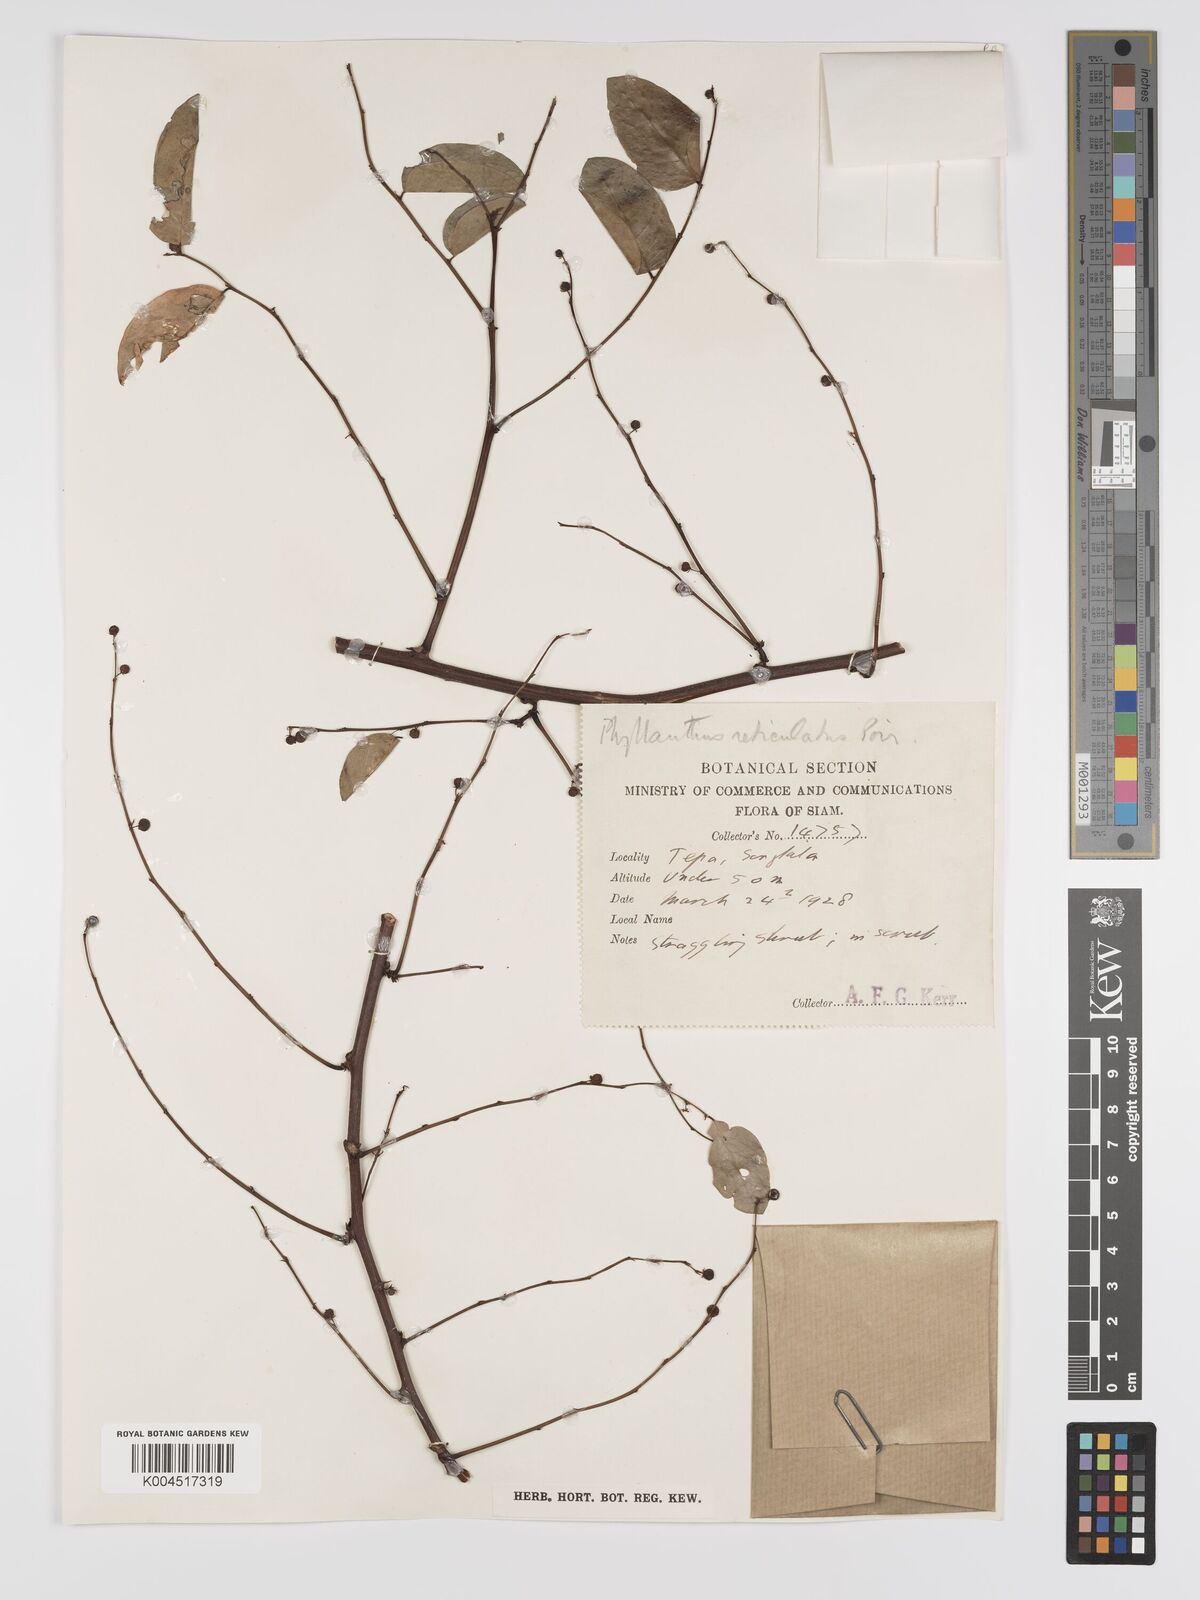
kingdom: Plantae
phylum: Tracheophyta
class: Magnoliopsida
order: Malpighiales
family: Phyllanthaceae
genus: Phyllanthus
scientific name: Phyllanthus reticulatus
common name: Potato bush
